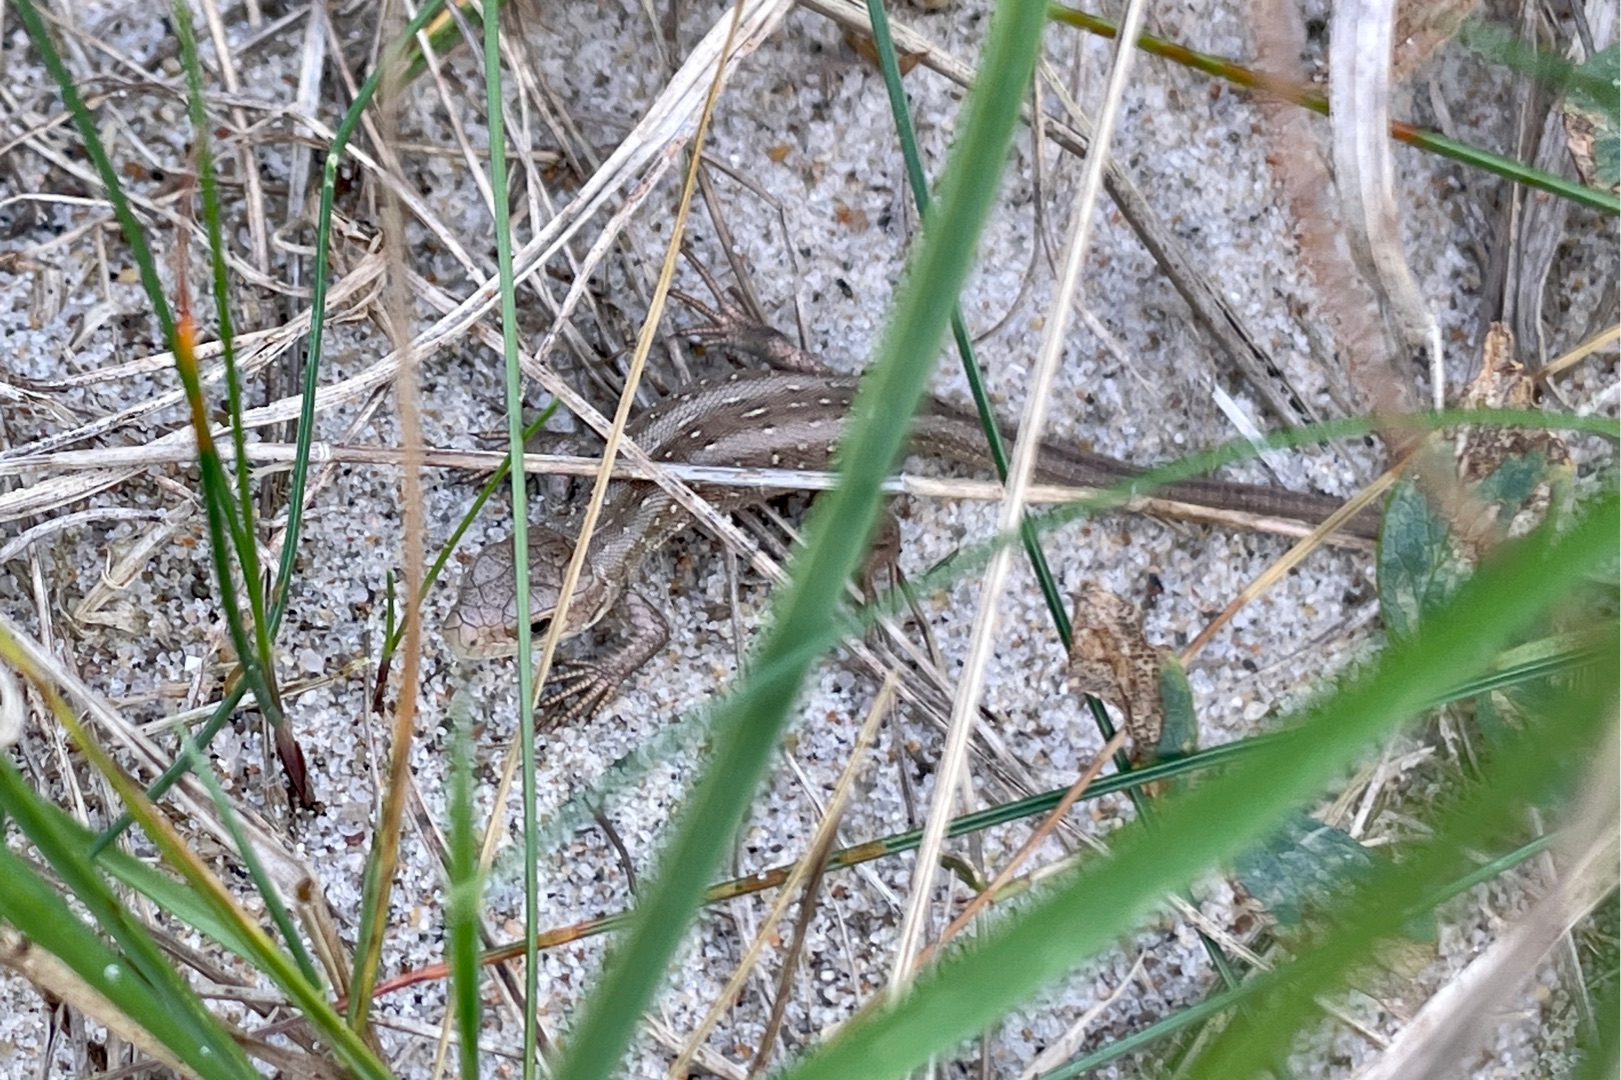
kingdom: Animalia
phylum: Chordata
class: Squamata
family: Lacertidae
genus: Lacerta
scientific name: Lacerta agilis
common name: Markfirben
